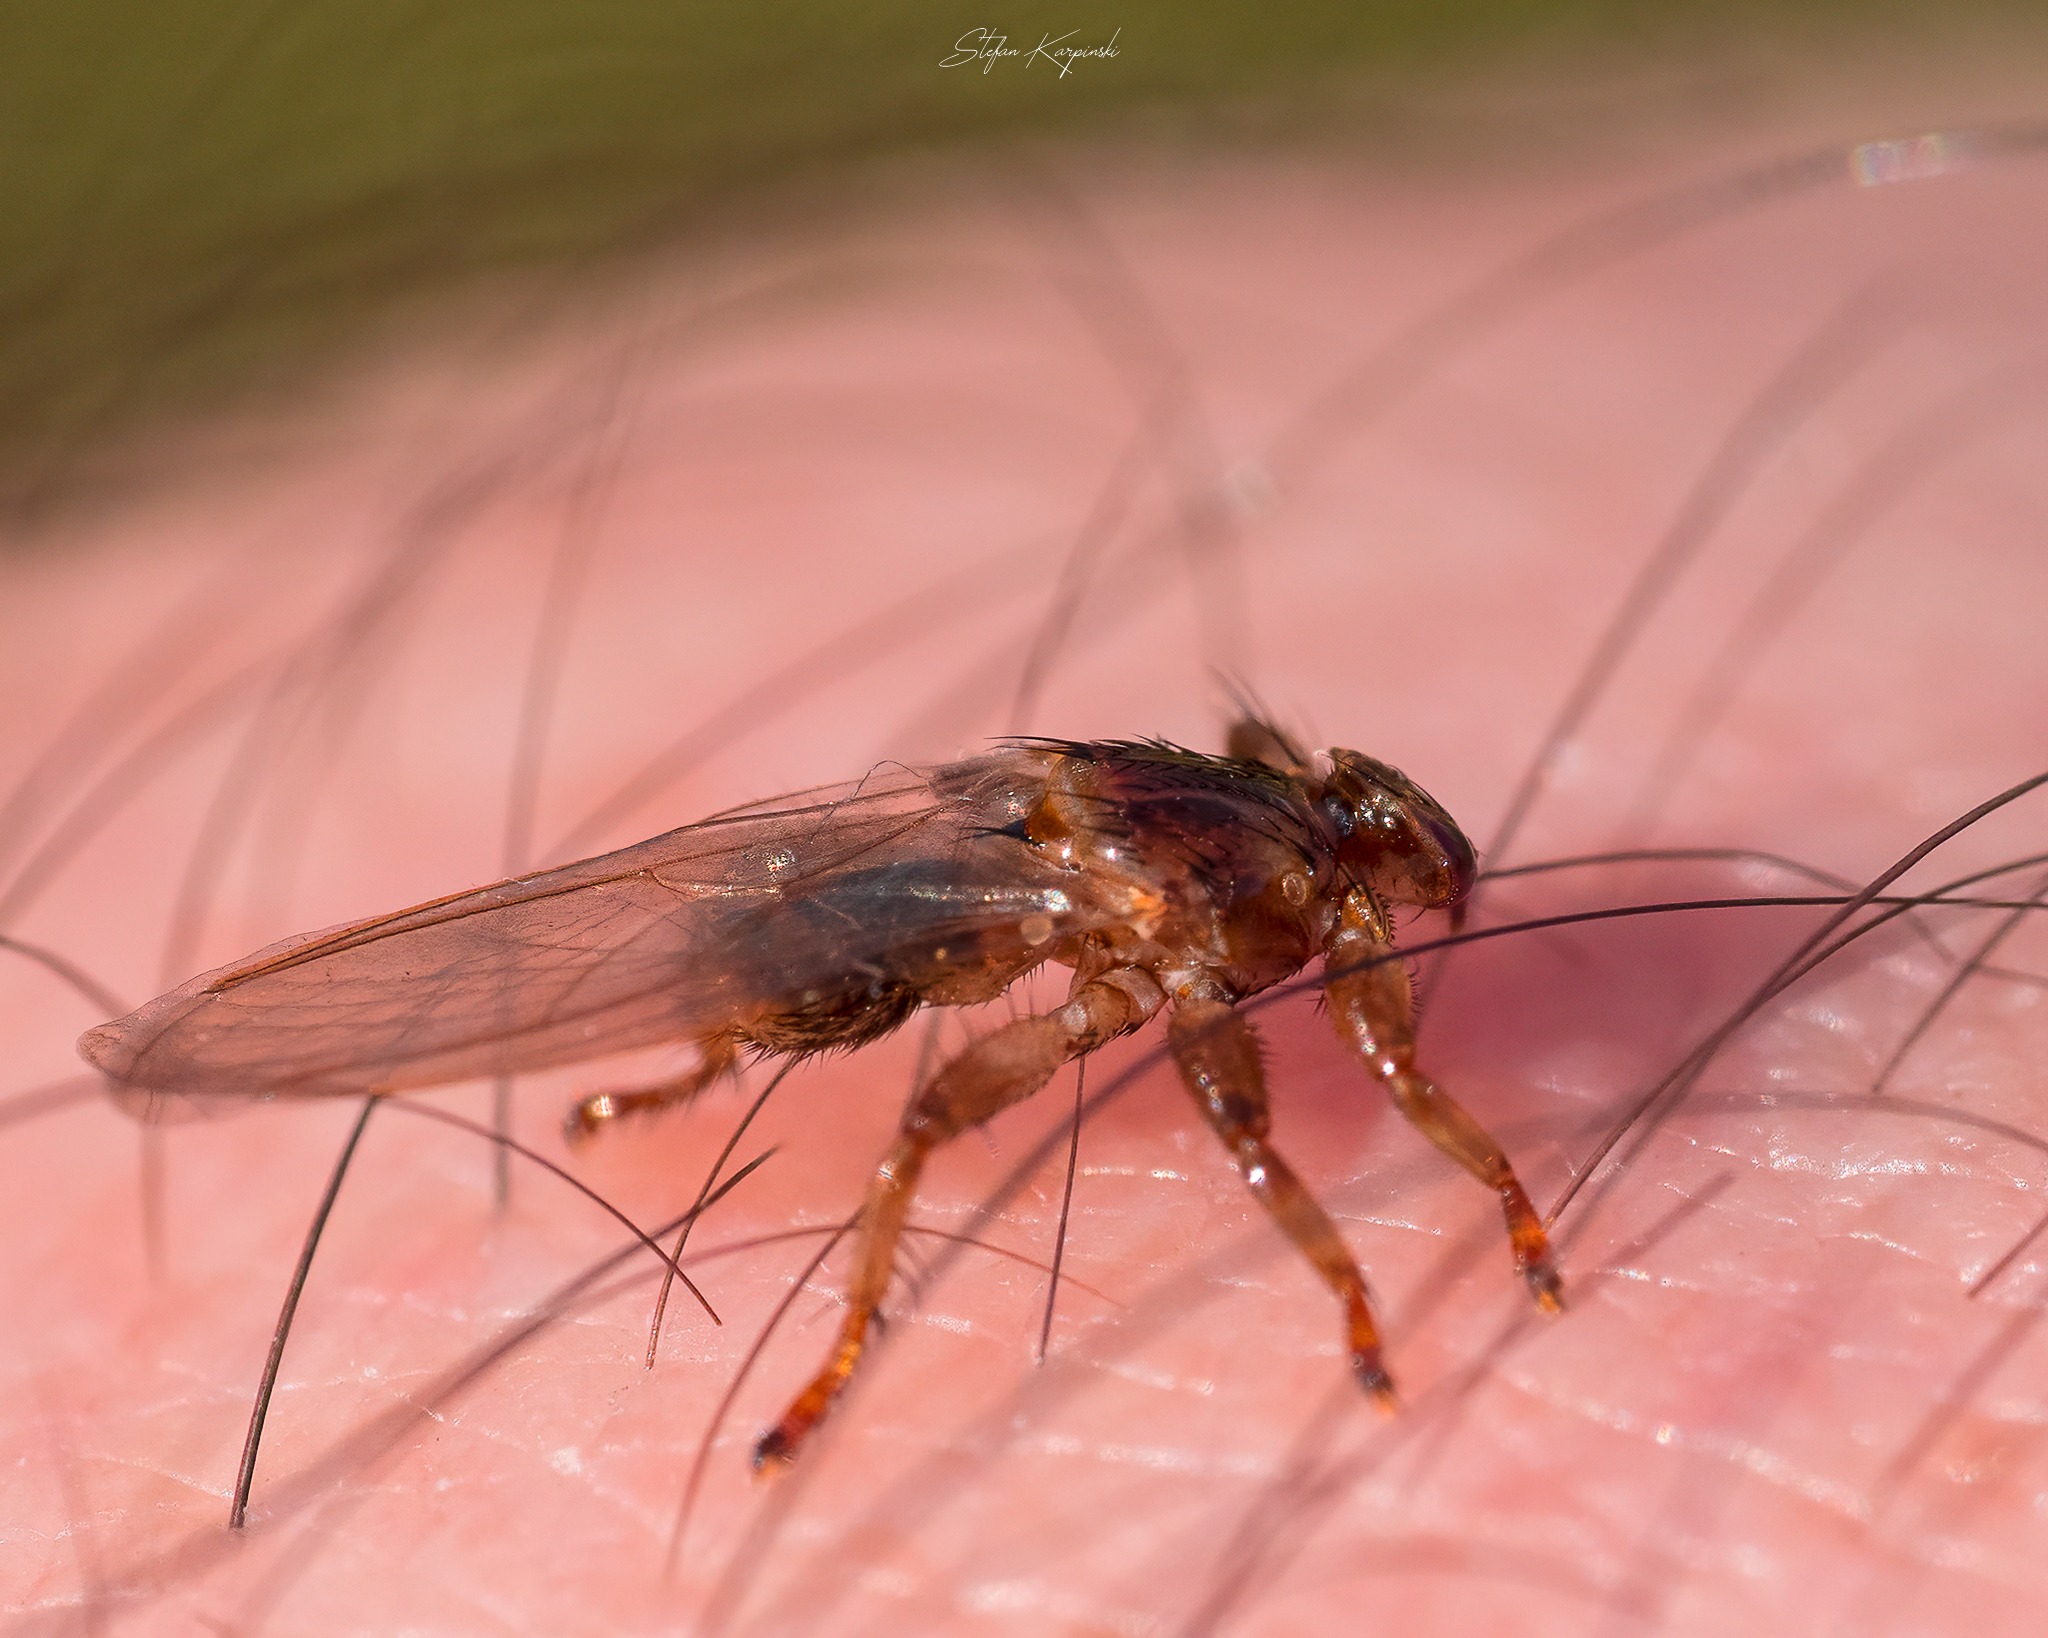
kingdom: Animalia
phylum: Arthropoda
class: Insecta
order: Diptera
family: Hippoboscidae
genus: Lipoptena
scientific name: Lipoptena cervi
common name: Hjortelus
